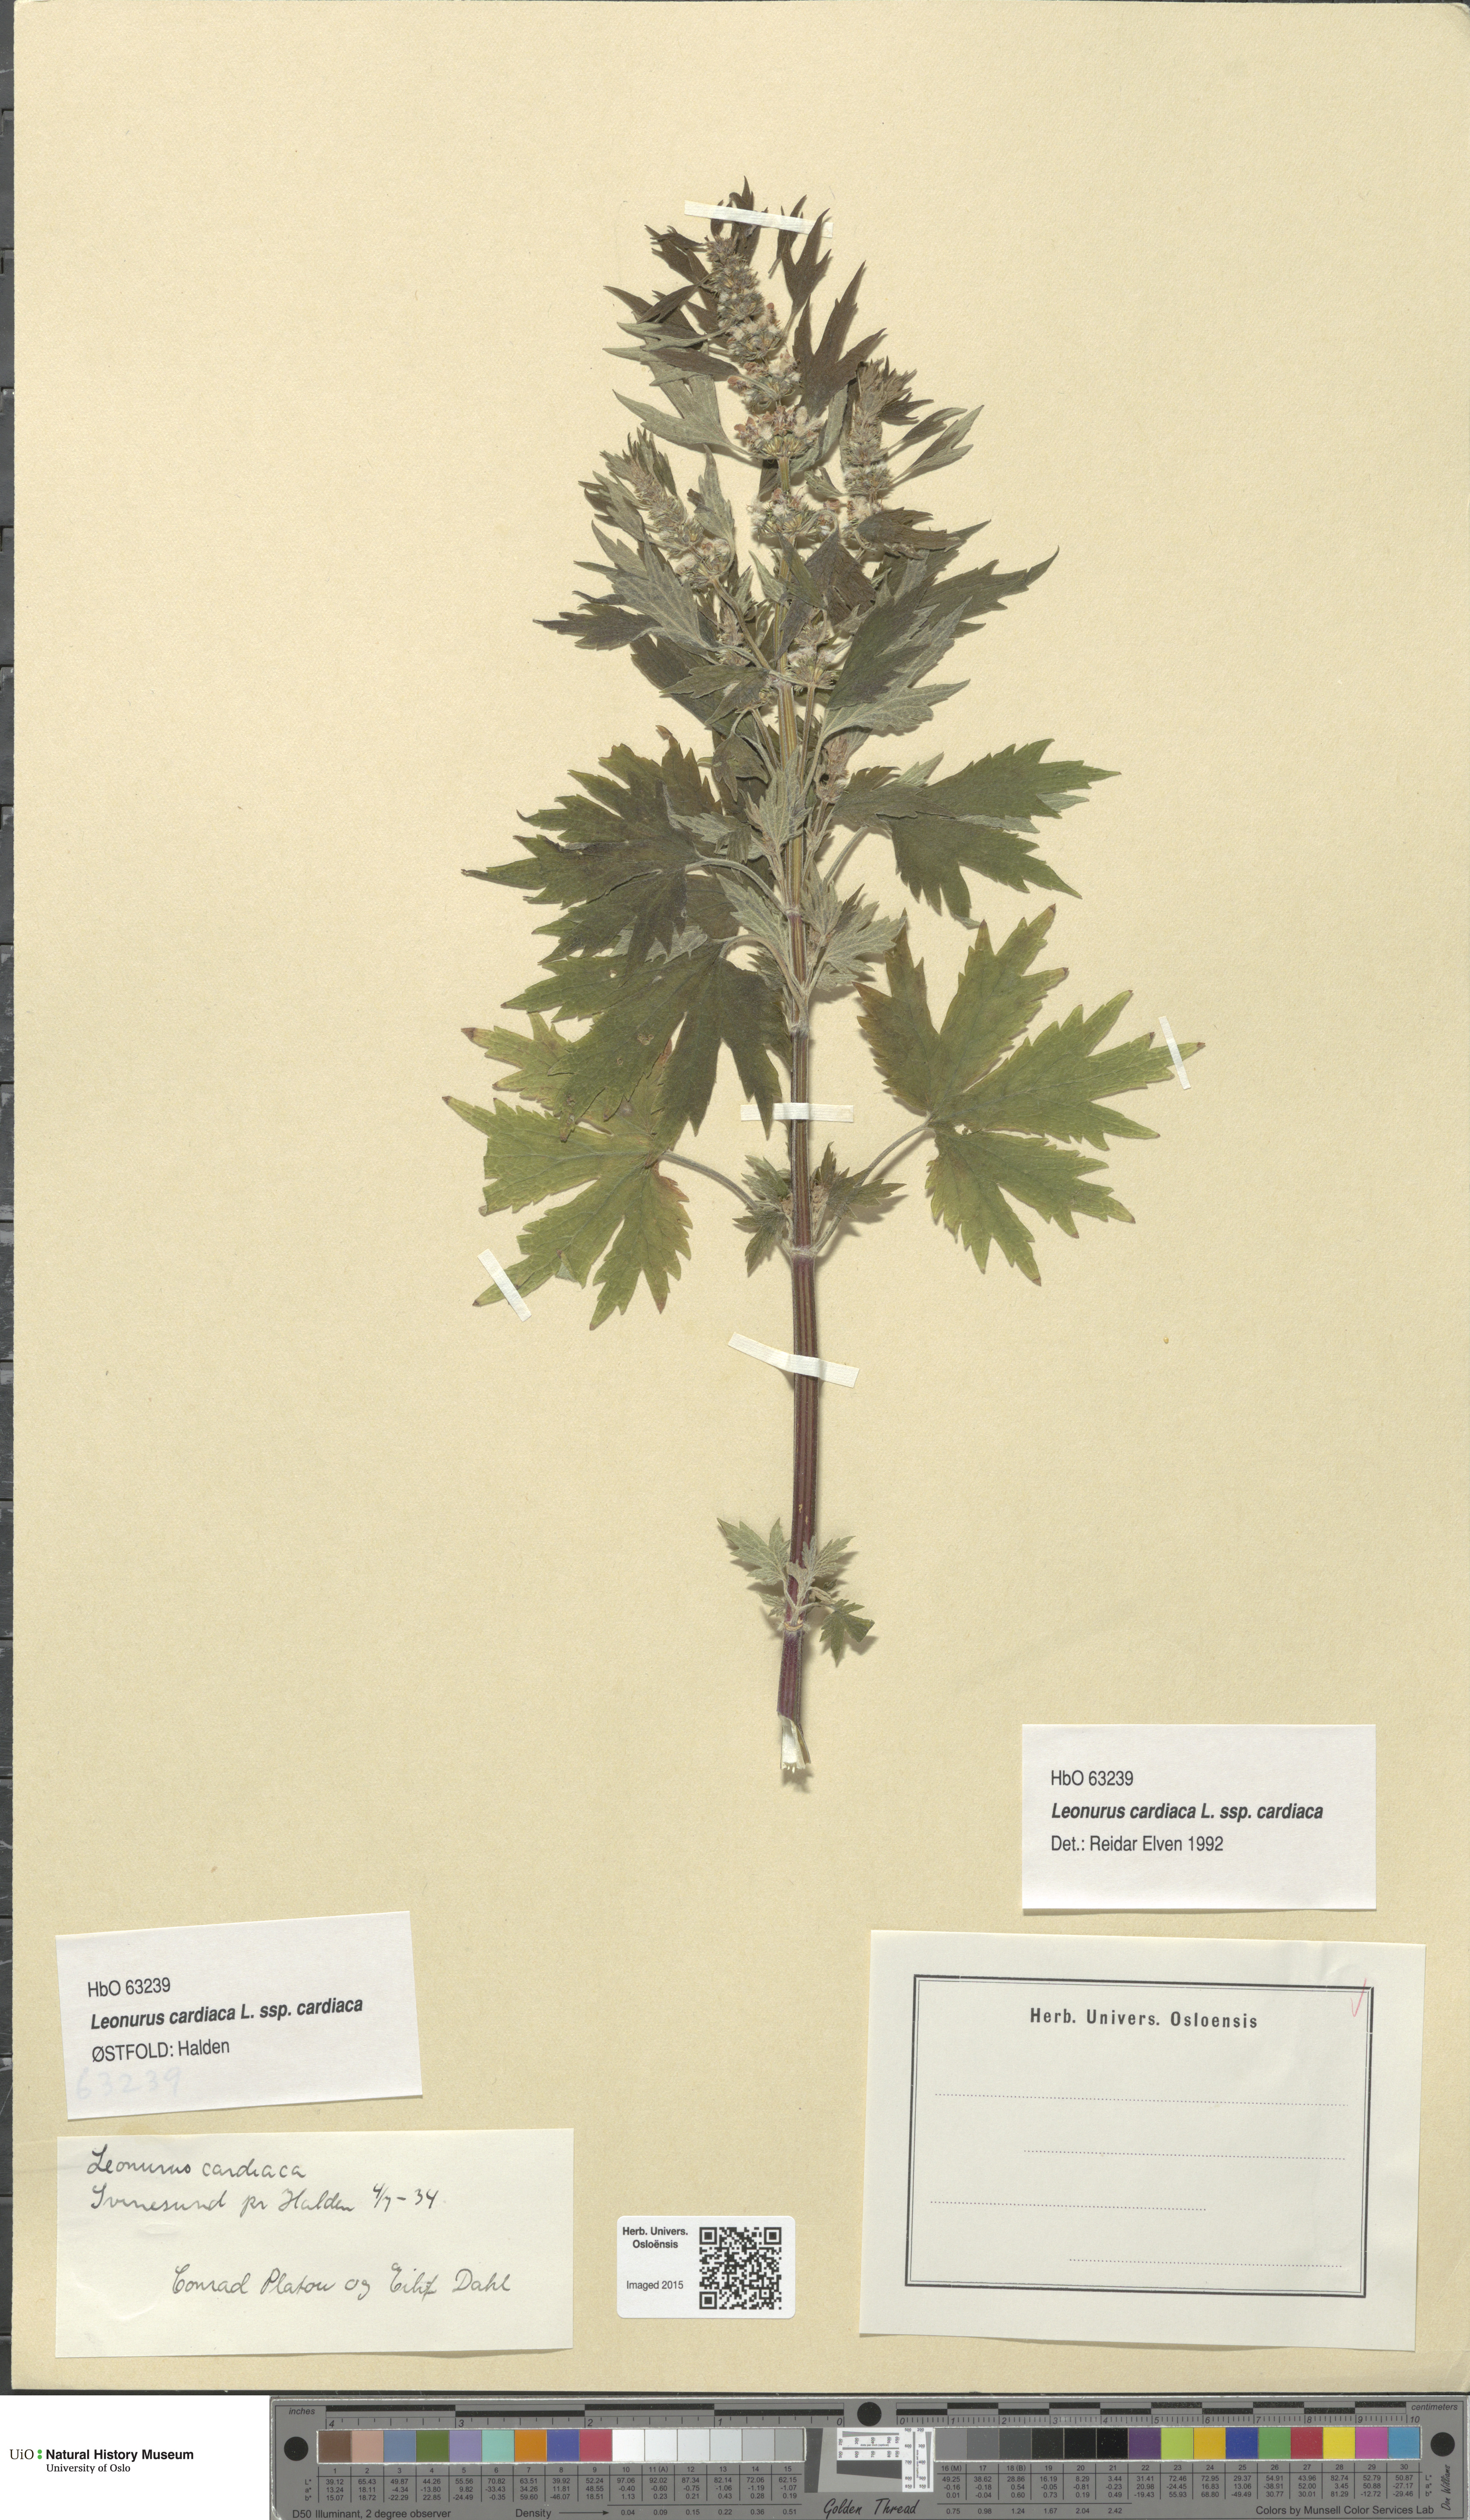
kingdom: Plantae
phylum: Tracheophyta
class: Magnoliopsida
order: Lamiales
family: Lamiaceae
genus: Leonurus
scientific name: Leonurus cardiaca
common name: Motherwort
